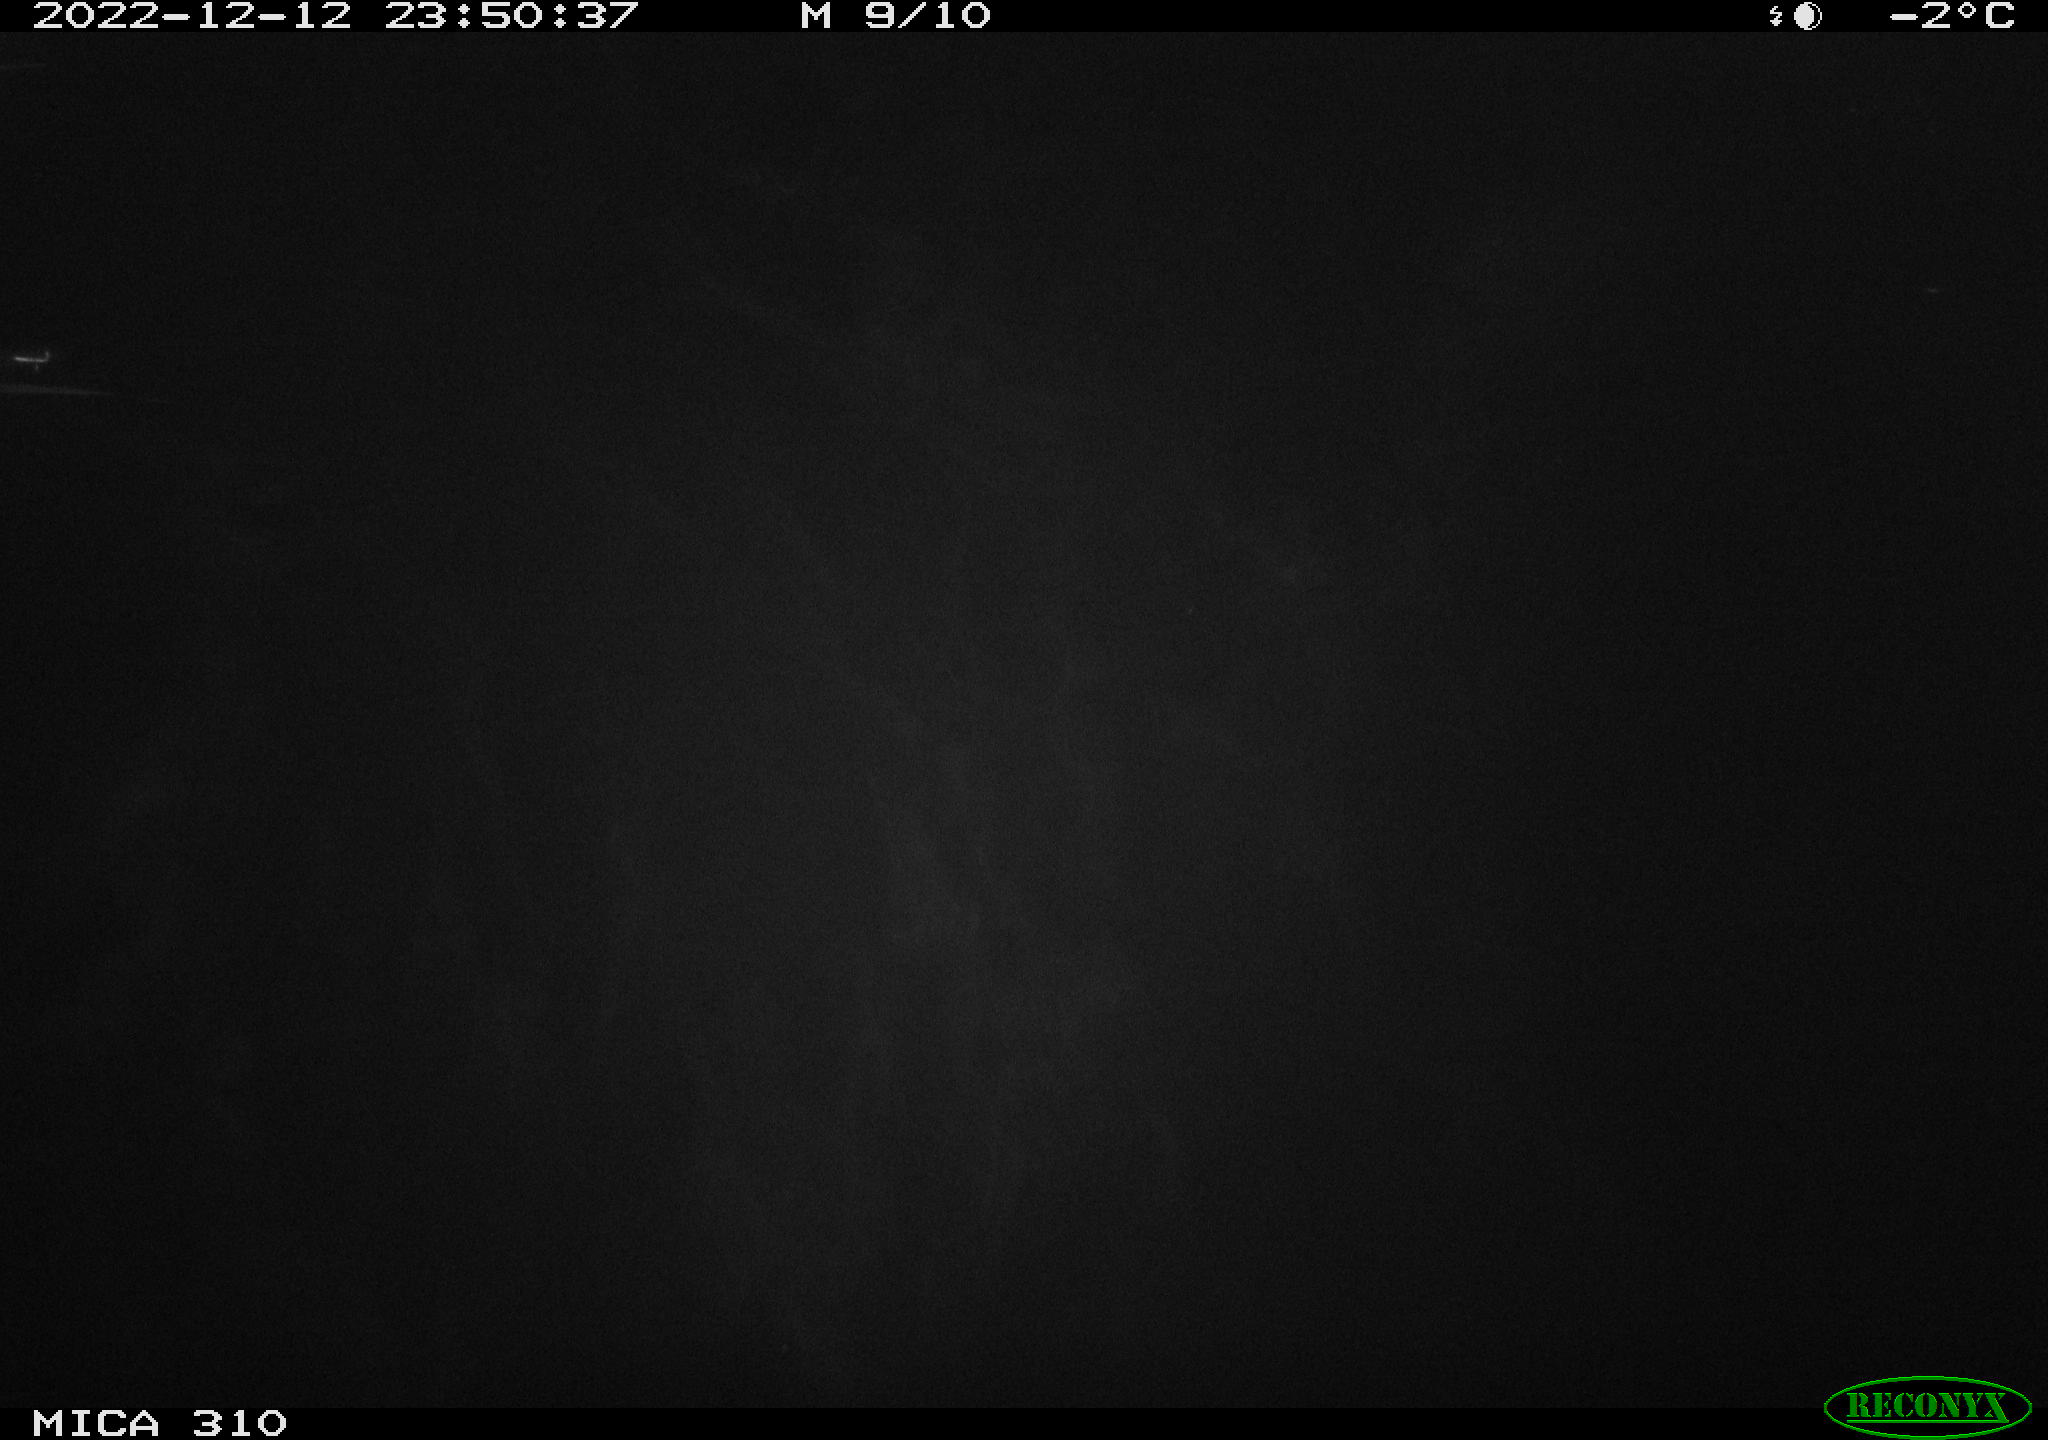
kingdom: Animalia
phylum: Chordata
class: Aves
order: Anseriformes
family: Anatidae
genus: Anas
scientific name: Anas
